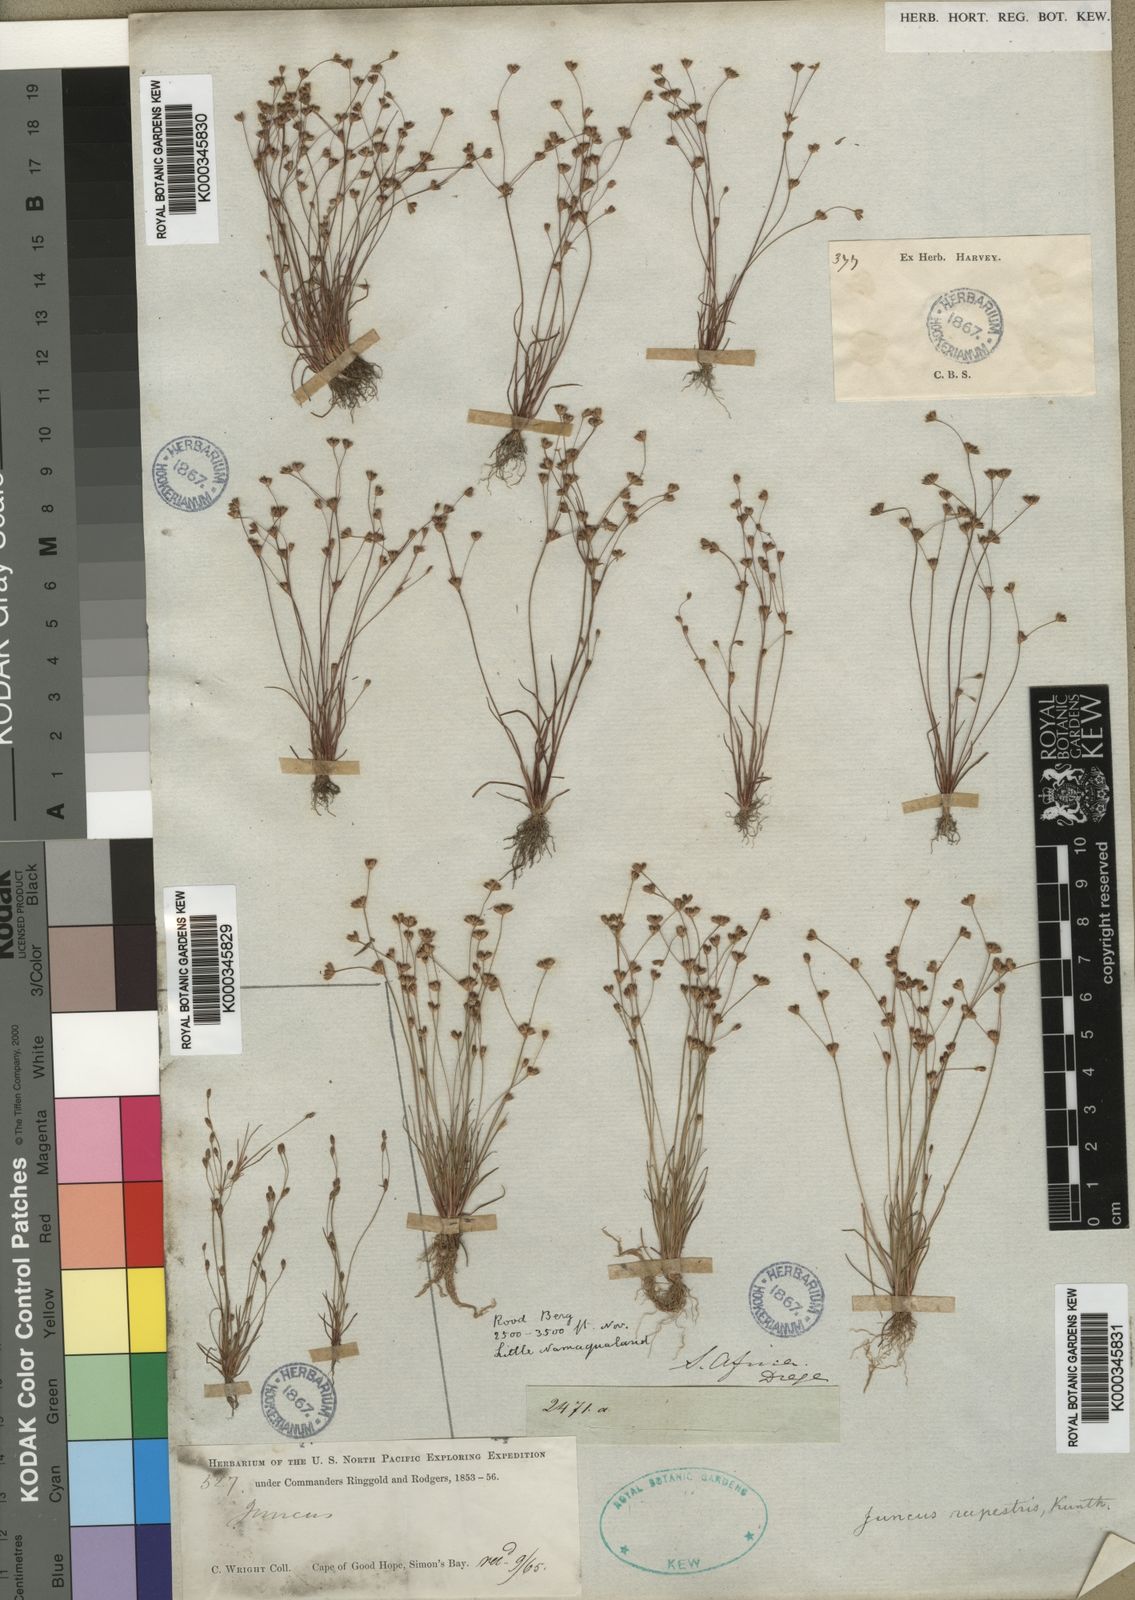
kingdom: Plantae
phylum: Tracheophyta
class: Liliopsida
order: Poales
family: Juncaceae
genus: Juncus
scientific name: Juncus rupestris
